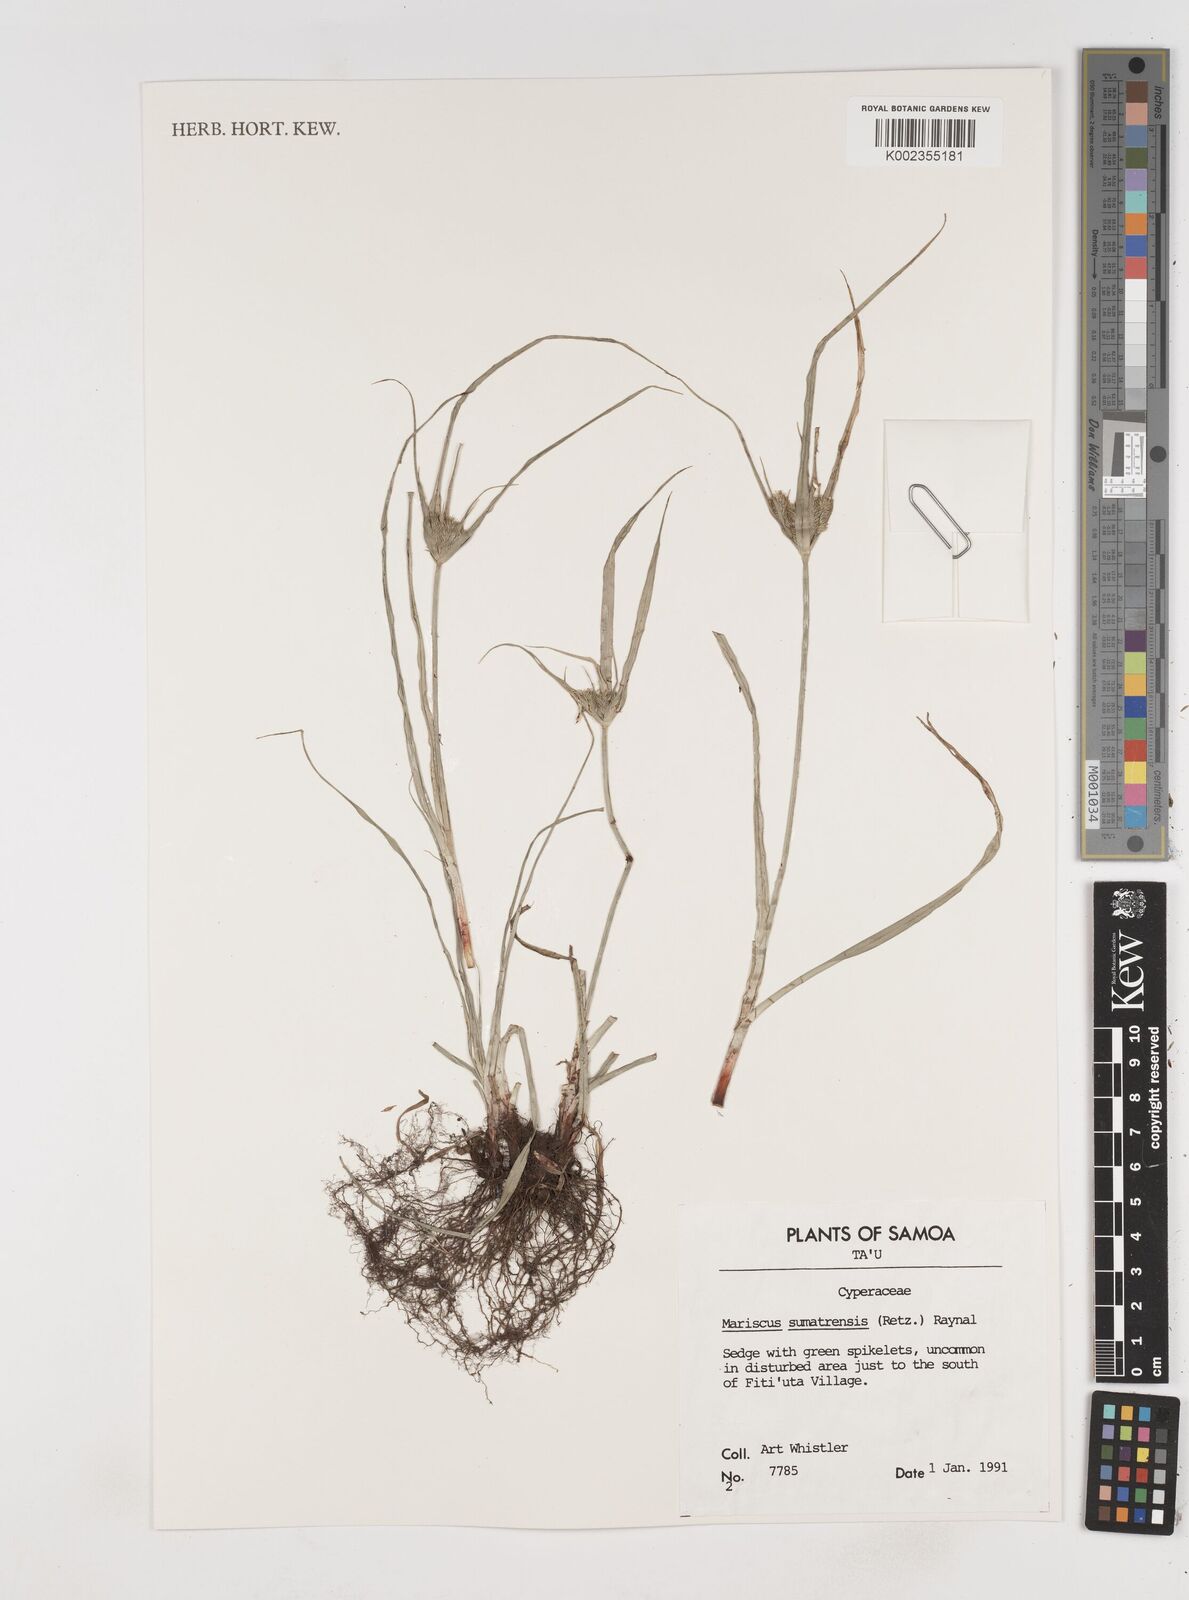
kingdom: Plantae
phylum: Tracheophyta
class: Liliopsida
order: Poales
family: Cyperaceae
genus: Cyperus
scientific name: Cyperus cyperoides
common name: Pacific island flat sedge
